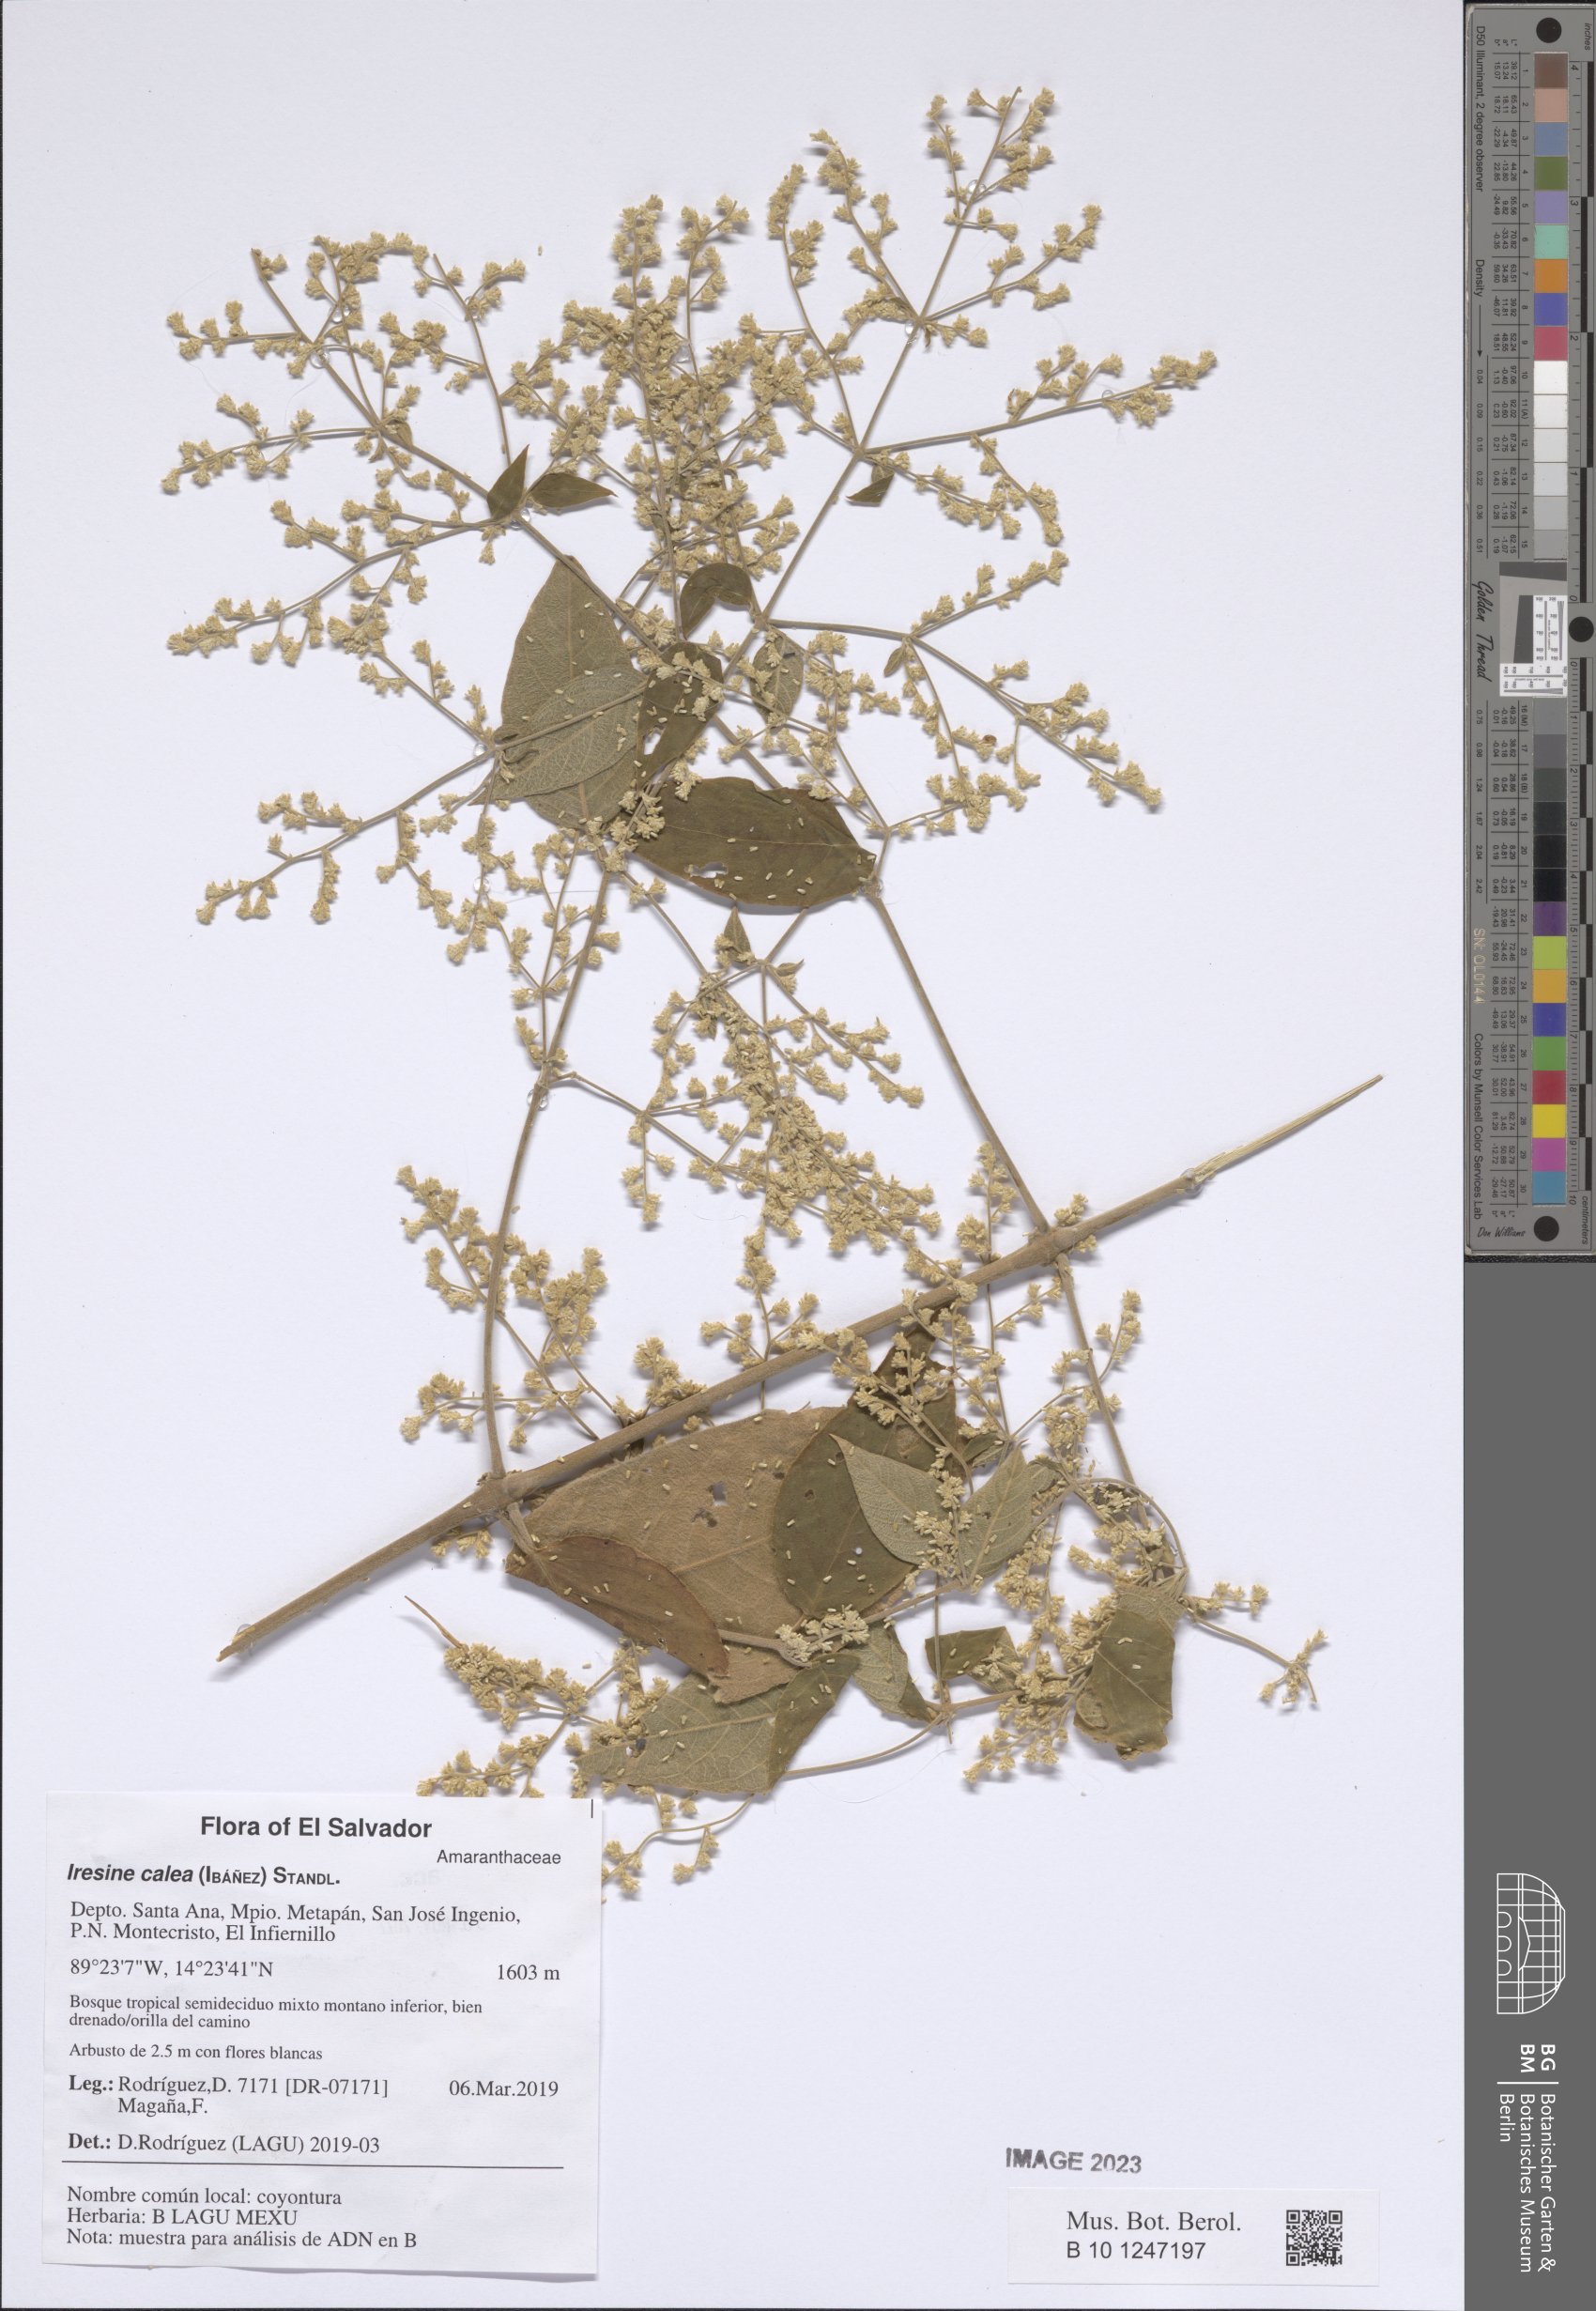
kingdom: Plantae
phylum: Tracheophyta
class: Magnoliopsida
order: Caryophyllales
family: Amaranthaceae
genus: Iresine
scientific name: Iresine latifolia
